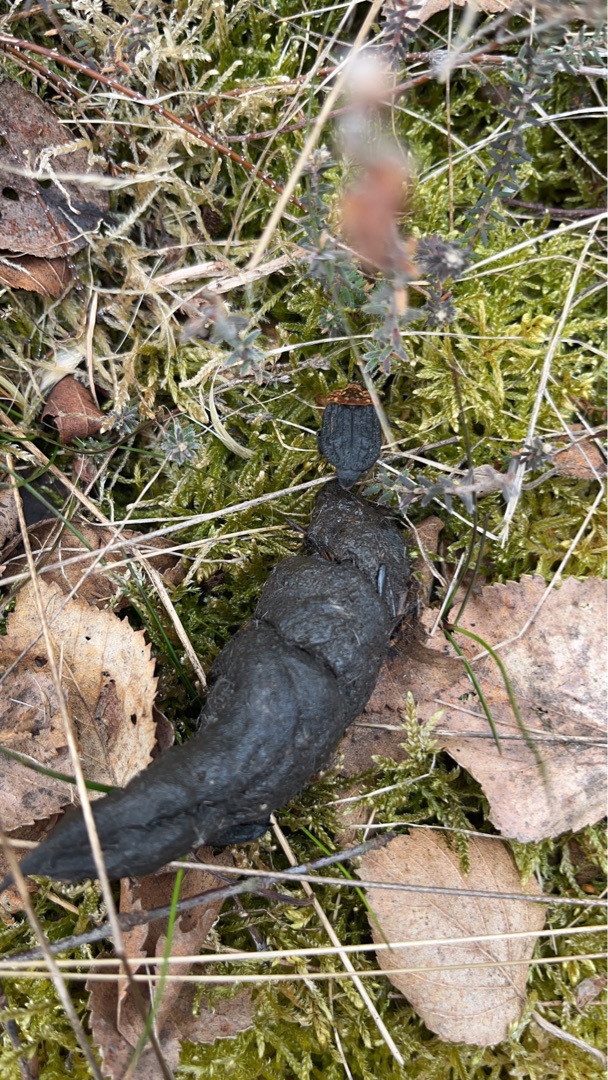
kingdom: Animalia
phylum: Arthropoda
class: Insecta
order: Coleoptera
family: Staphylinidae
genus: Oiceoptoma
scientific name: Oiceoptoma thoracicum
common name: Rødbrystet ådselbille
